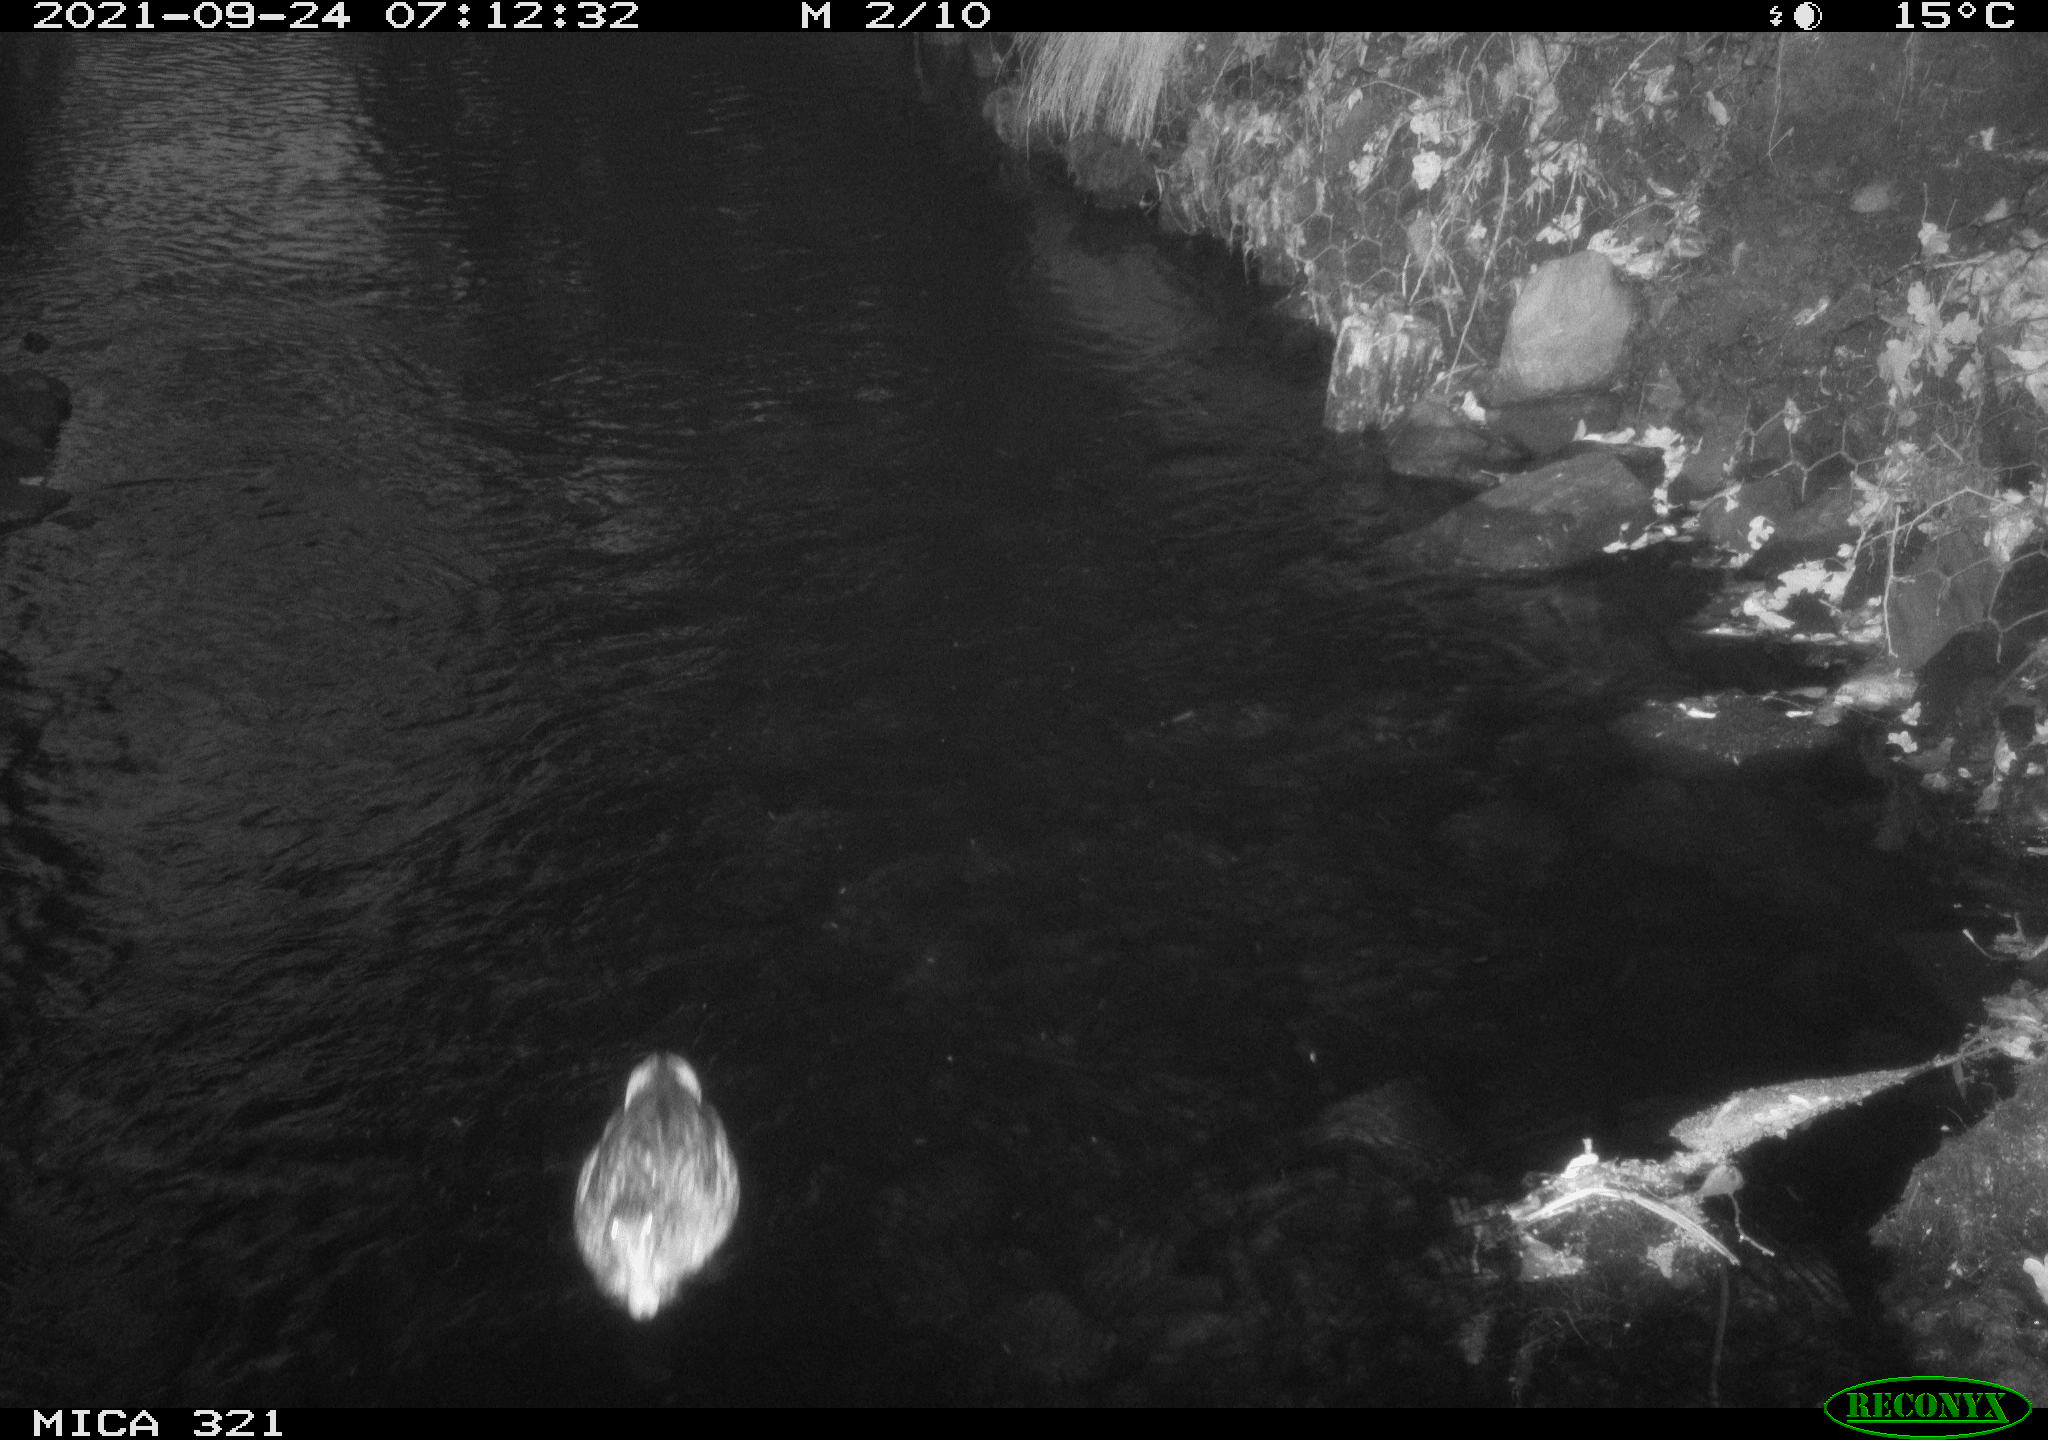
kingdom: Animalia
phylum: Chordata
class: Aves
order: Anseriformes
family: Anatidae
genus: Anas
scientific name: Anas platyrhynchos
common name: Mallard
